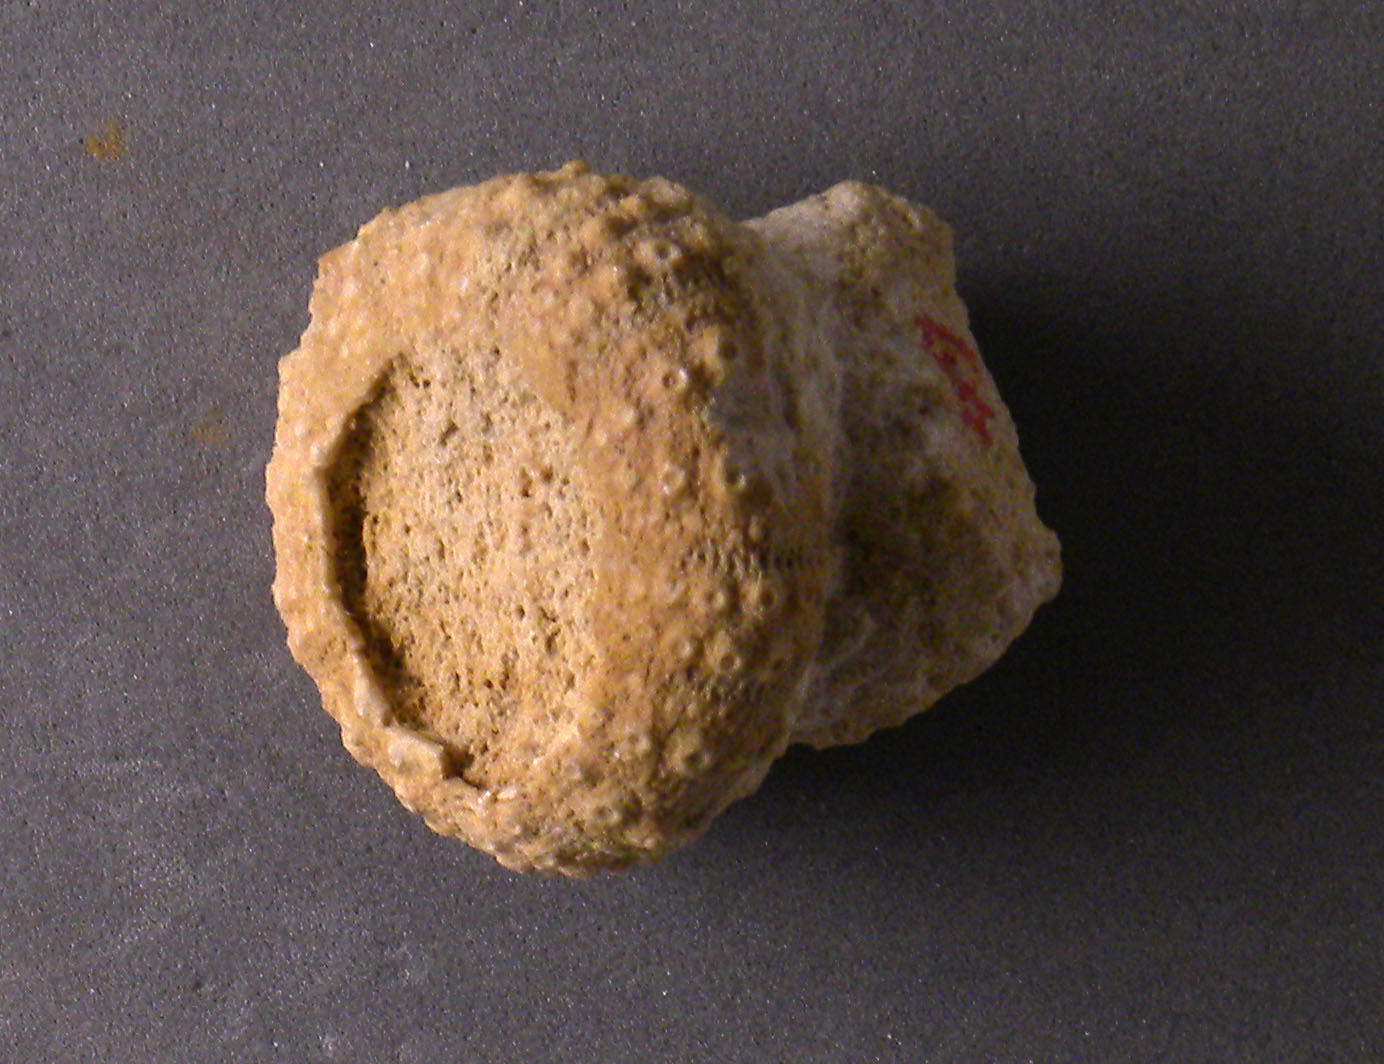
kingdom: Animalia
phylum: Echinodermata
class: Echinoidea
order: Cidaroida
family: Cidaridae
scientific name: Cidaridae
